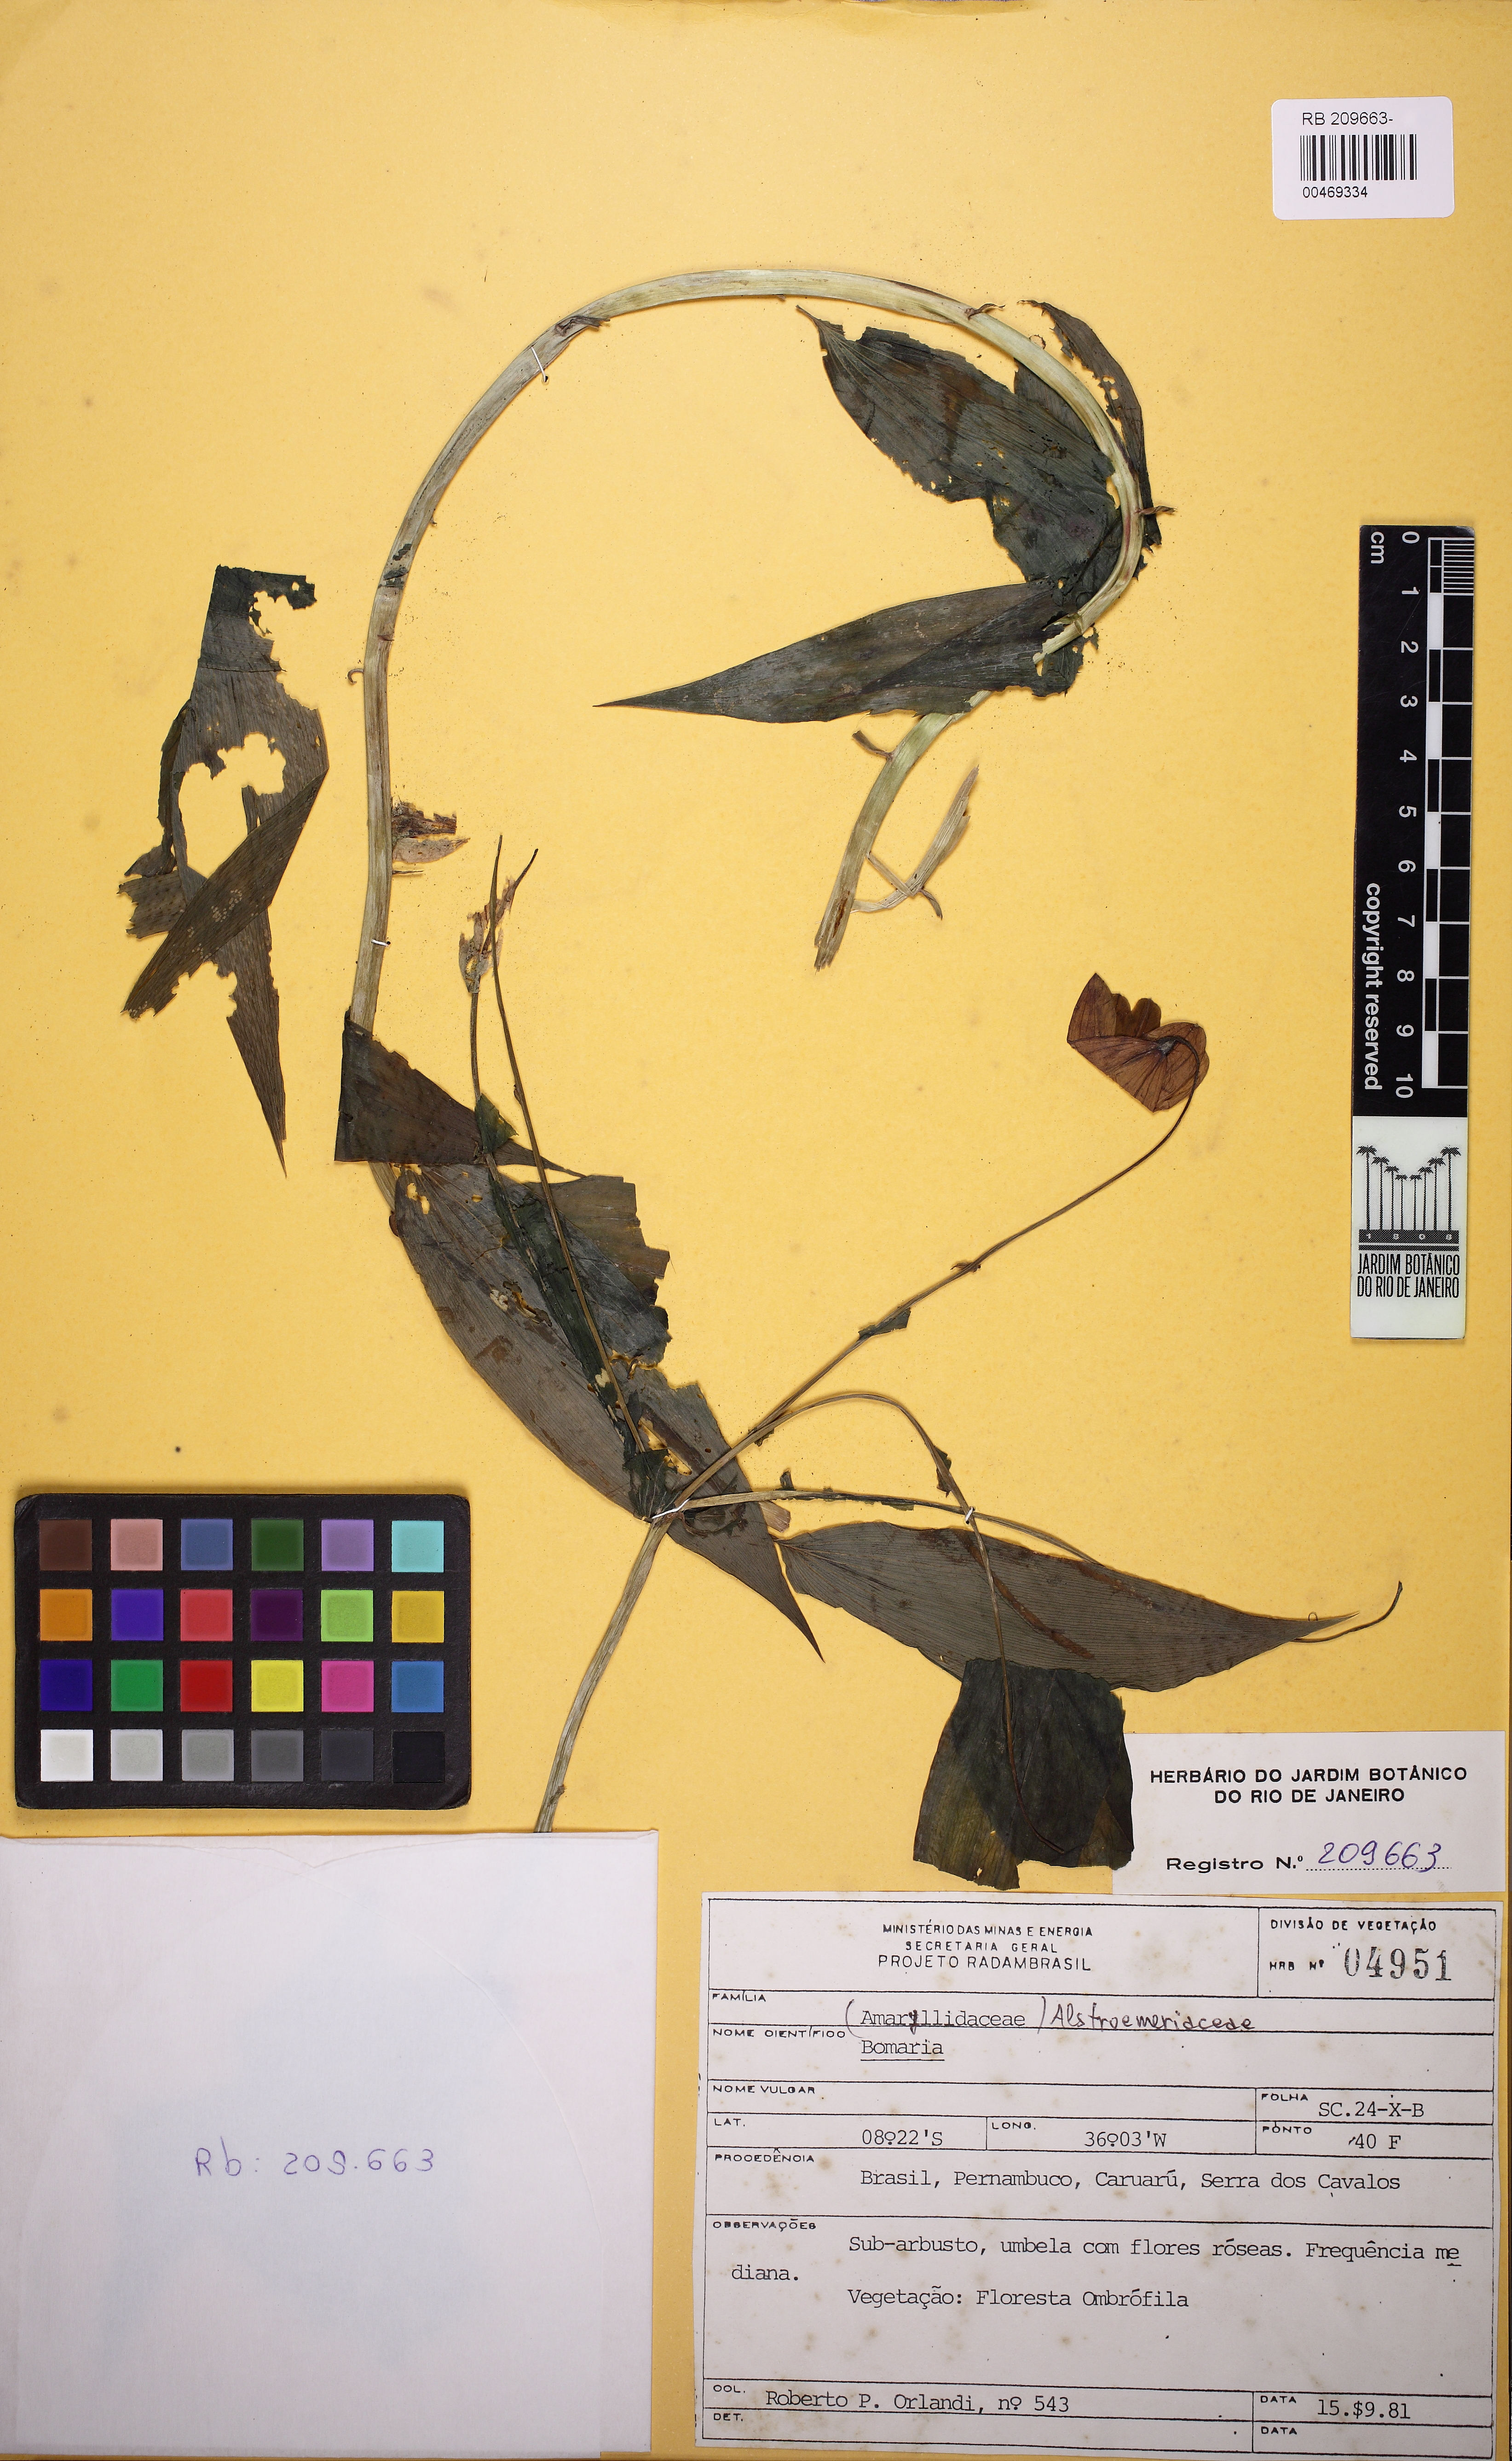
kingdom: Plantae
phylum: Tracheophyta
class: Liliopsida
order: Liliales
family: Alstroemeriaceae
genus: Bomarea
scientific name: Bomarea
